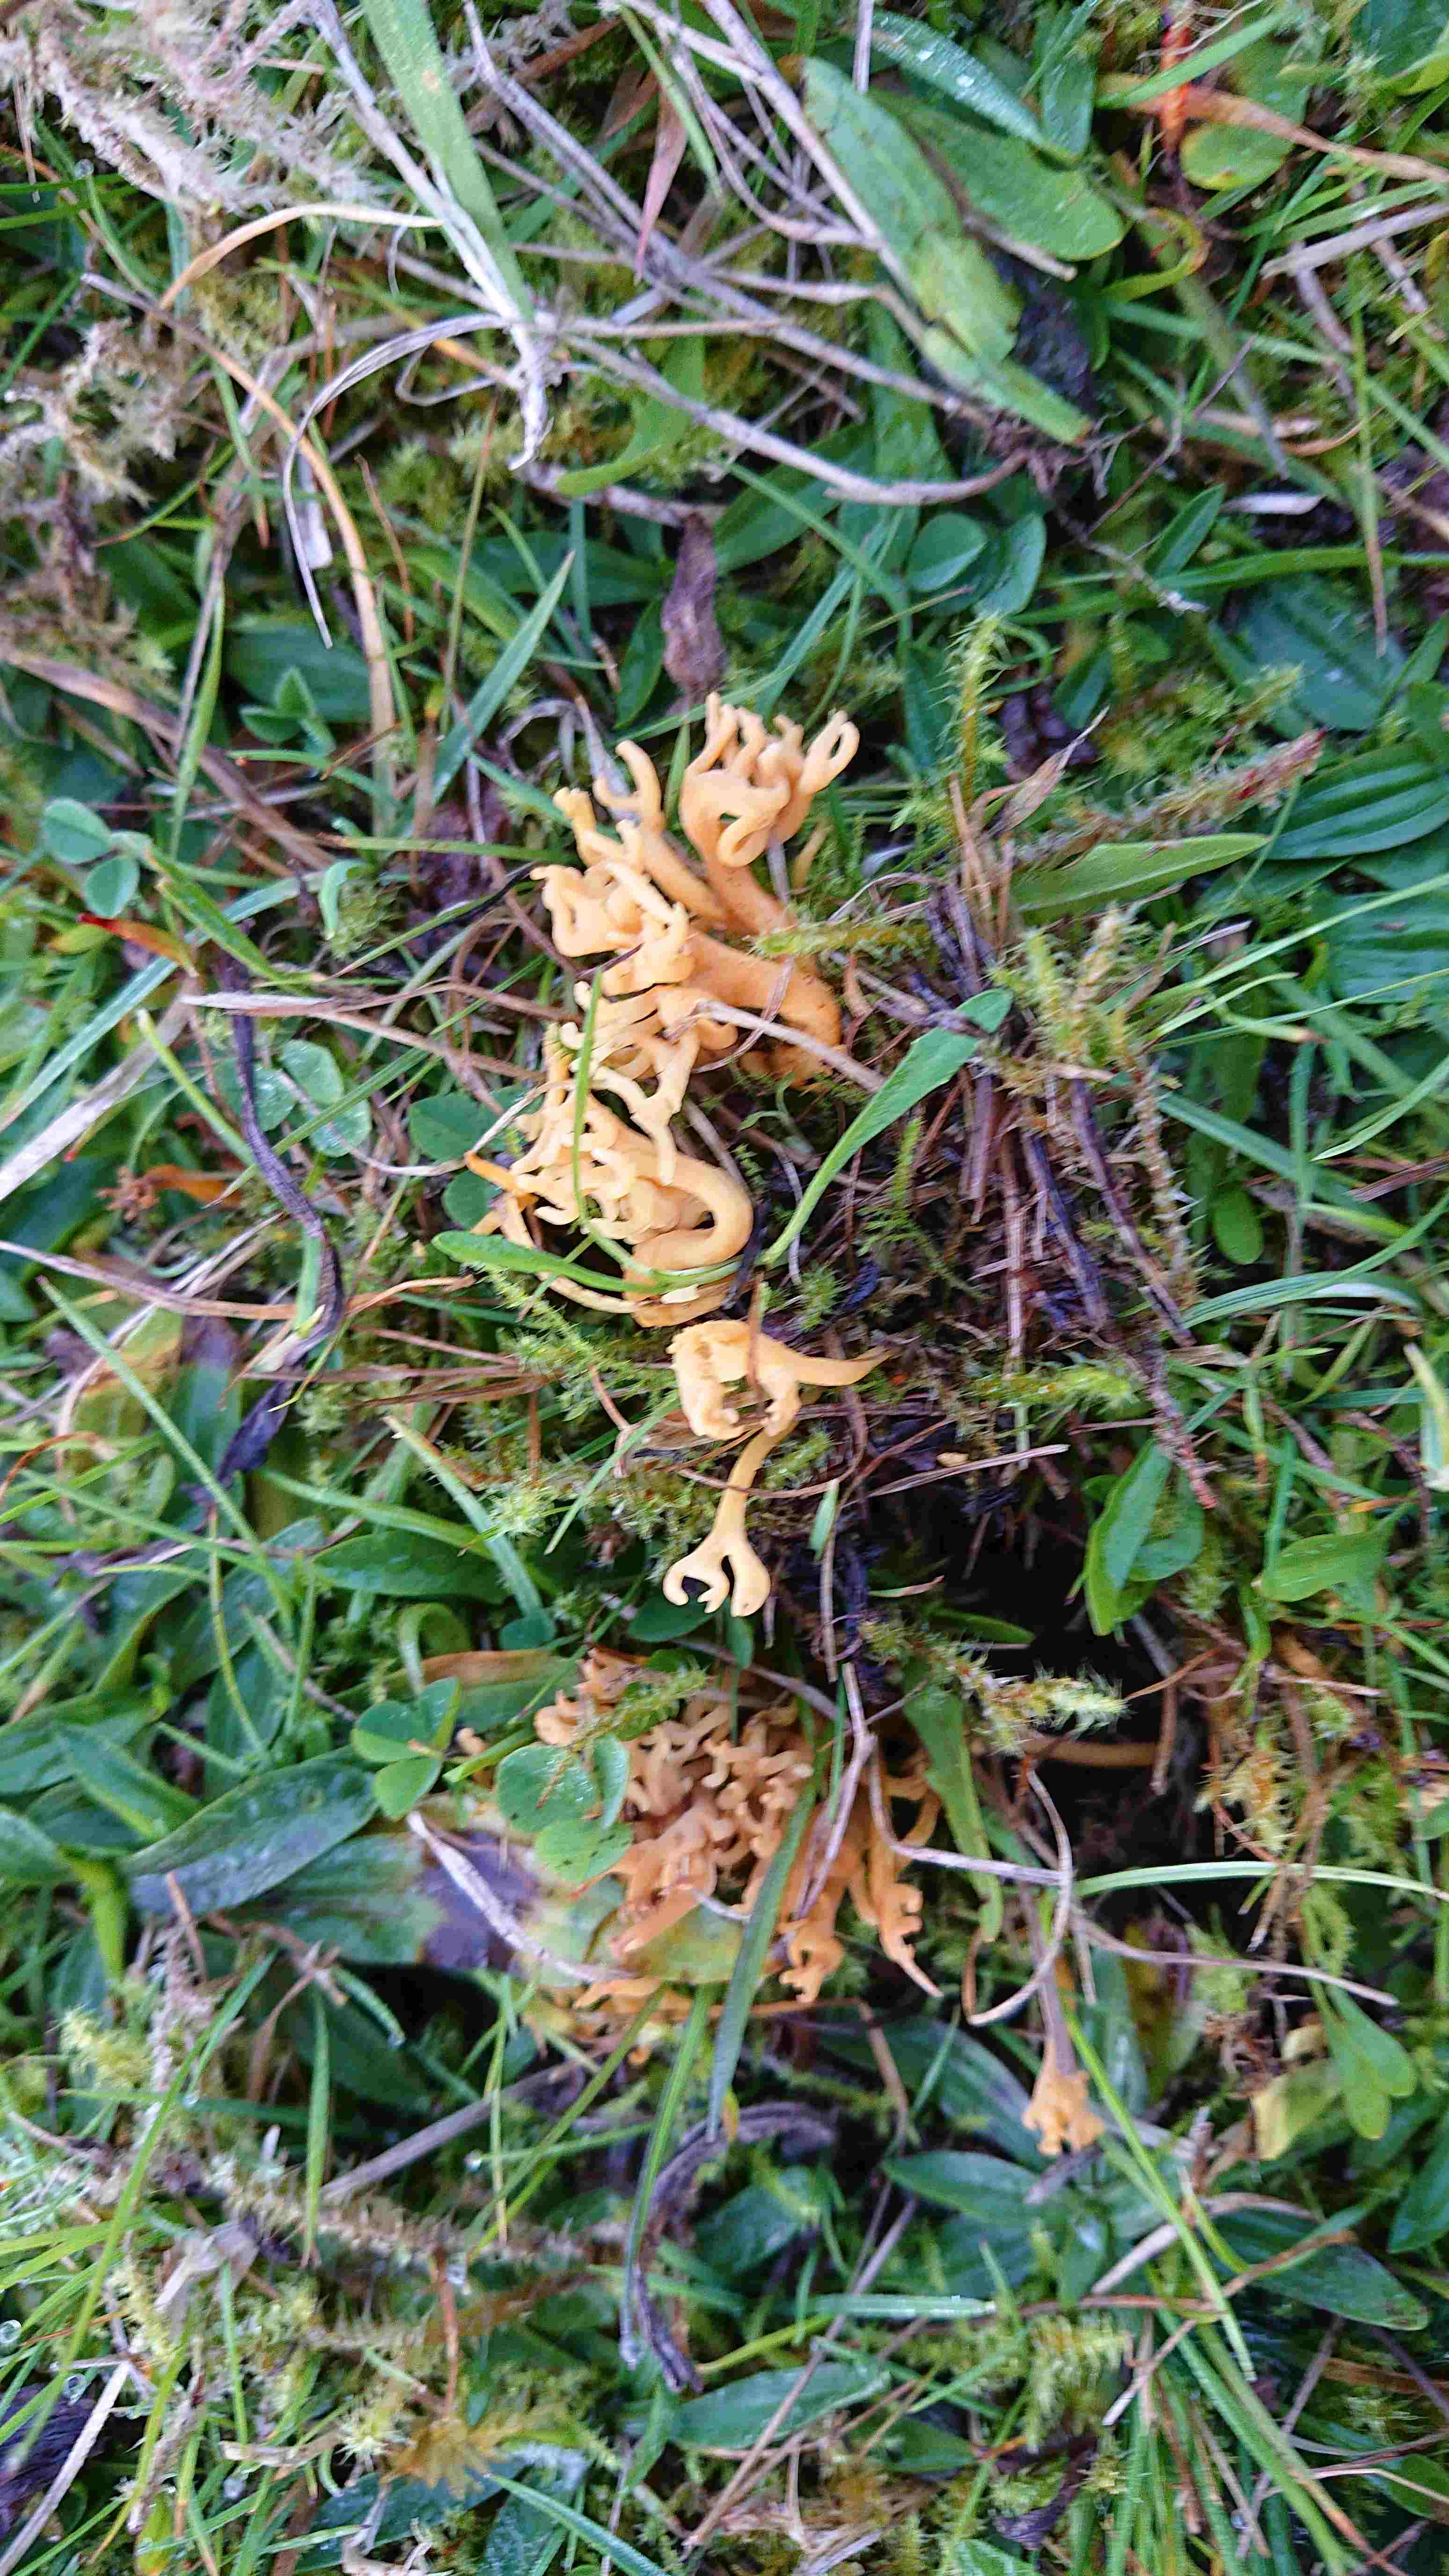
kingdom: Fungi
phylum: Basidiomycota
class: Agaricomycetes
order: Agaricales
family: Clavariaceae
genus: Clavulinopsis
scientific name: Clavulinopsis corniculata
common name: eng-køllesvamp
